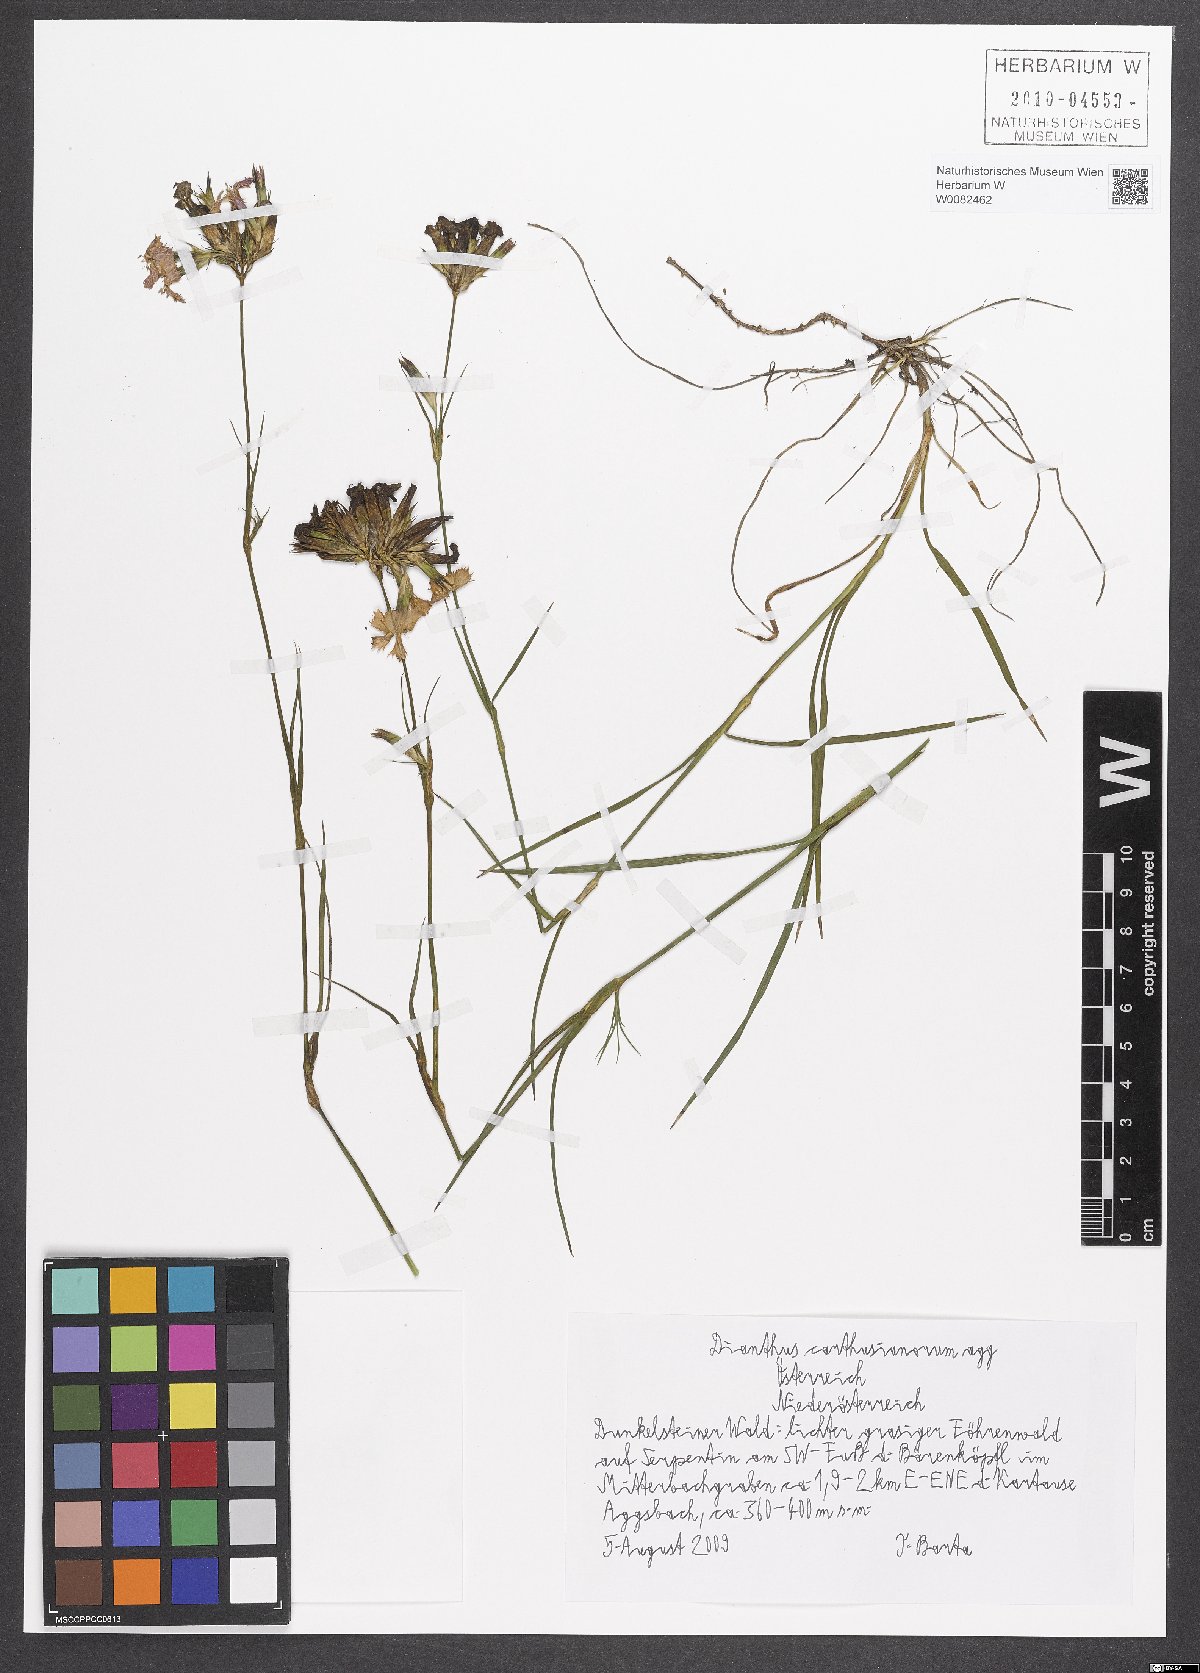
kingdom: Plantae
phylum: Tracheophyta
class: Magnoliopsida
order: Caryophyllales
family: Caryophyllaceae
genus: Dianthus
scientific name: Dianthus carthusianorum
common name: Carthusian pink
